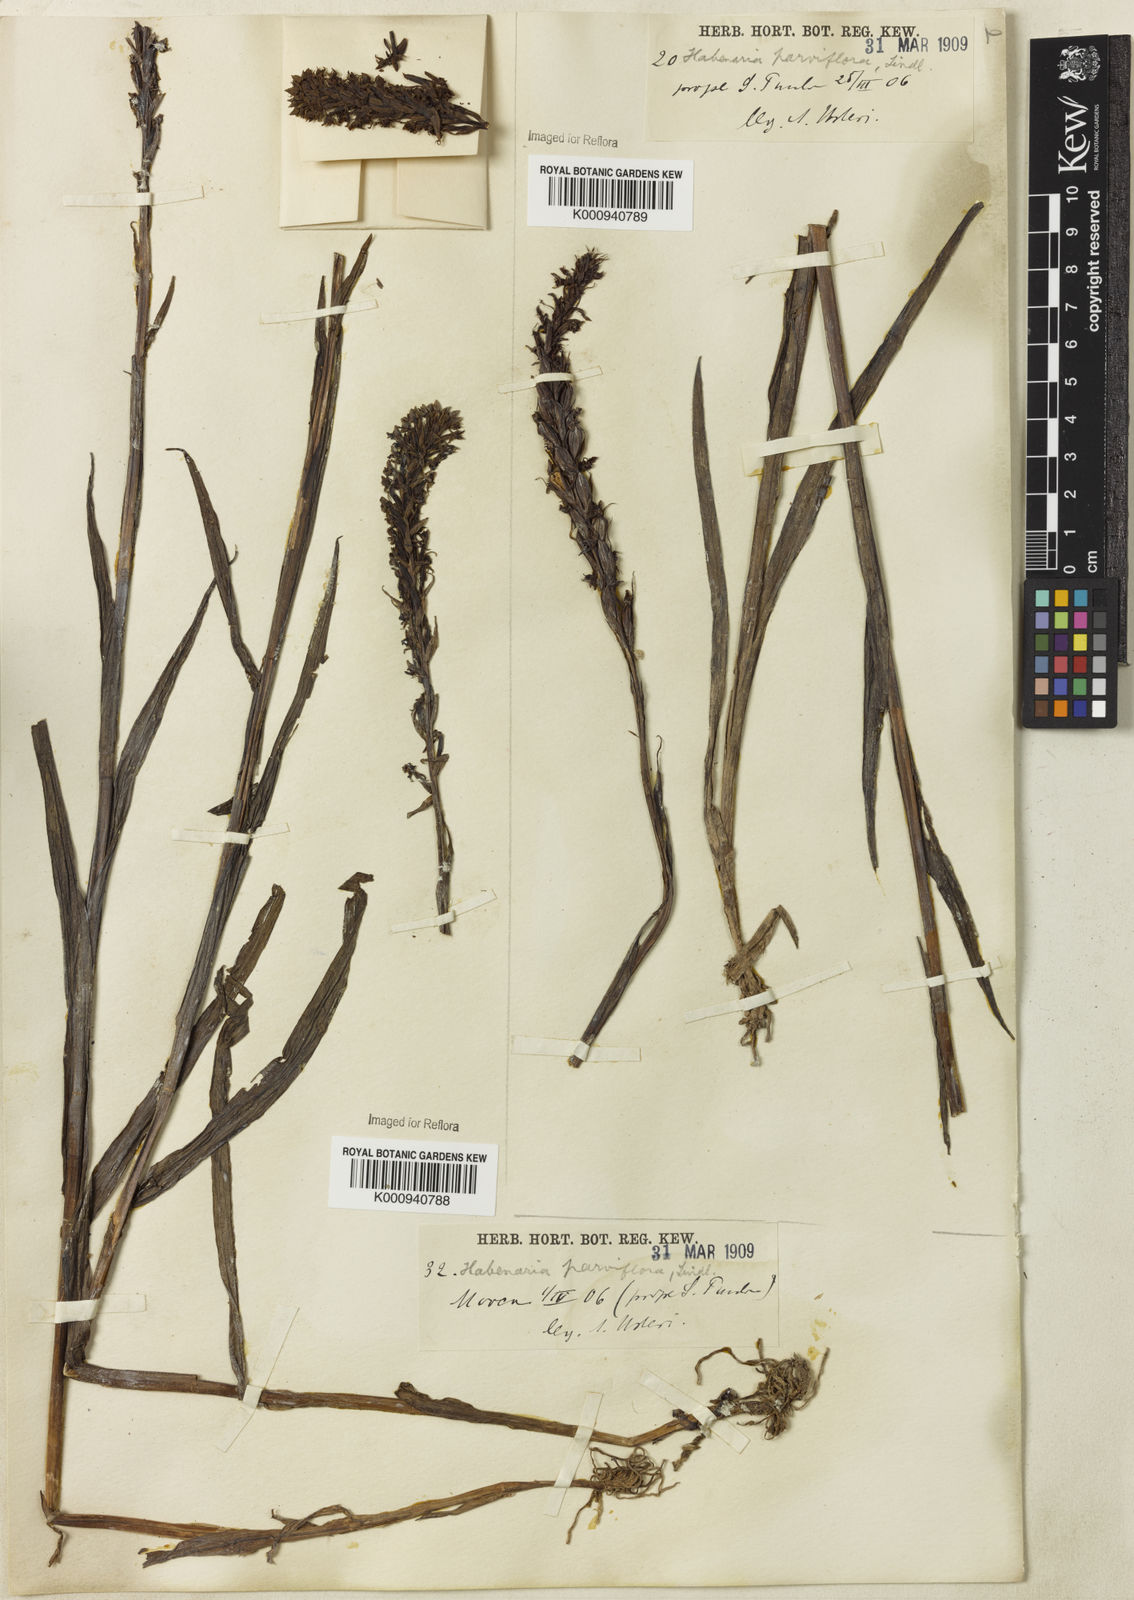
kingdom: Plantae
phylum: Tracheophyta
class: Liliopsida
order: Asparagales
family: Orchidaceae
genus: Habenaria
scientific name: Habenaria parviflora
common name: Small flowered habenaria
